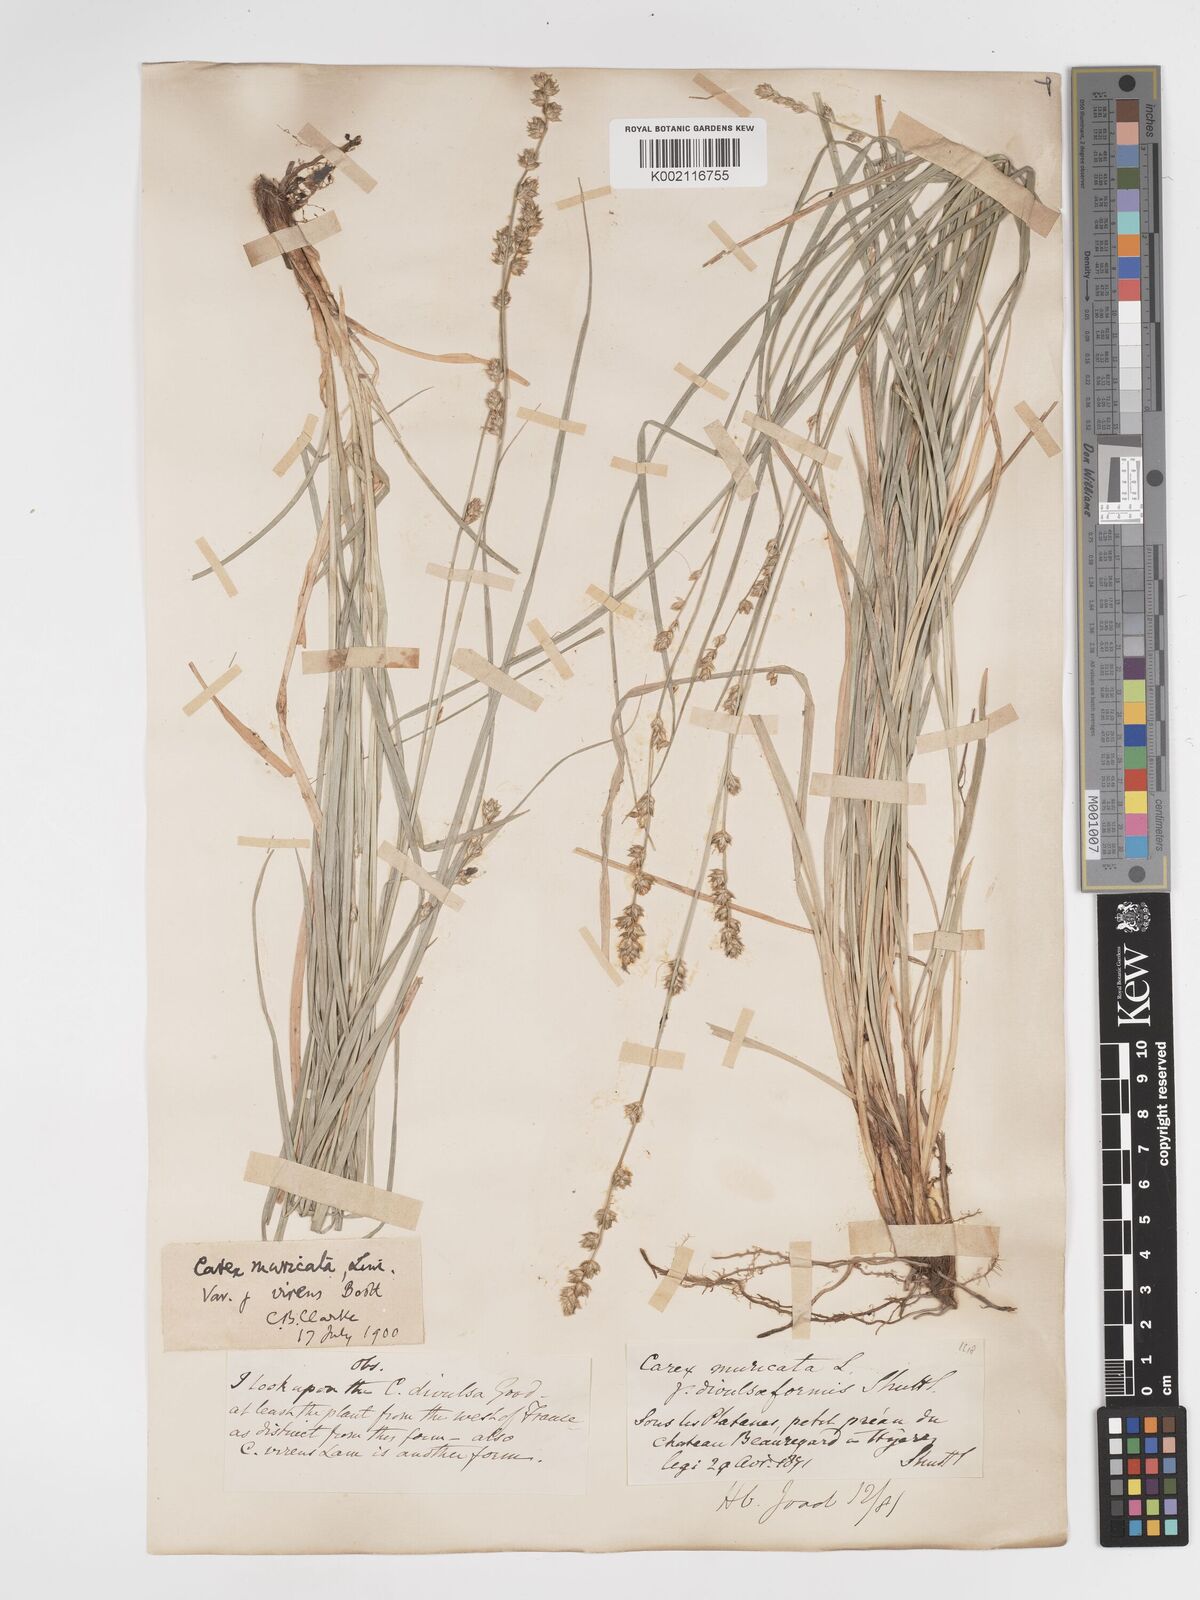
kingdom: Plantae
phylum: Tracheophyta
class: Liliopsida
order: Poales
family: Cyperaceae
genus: Carex
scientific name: Carex divulsa
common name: Grassland sedge
